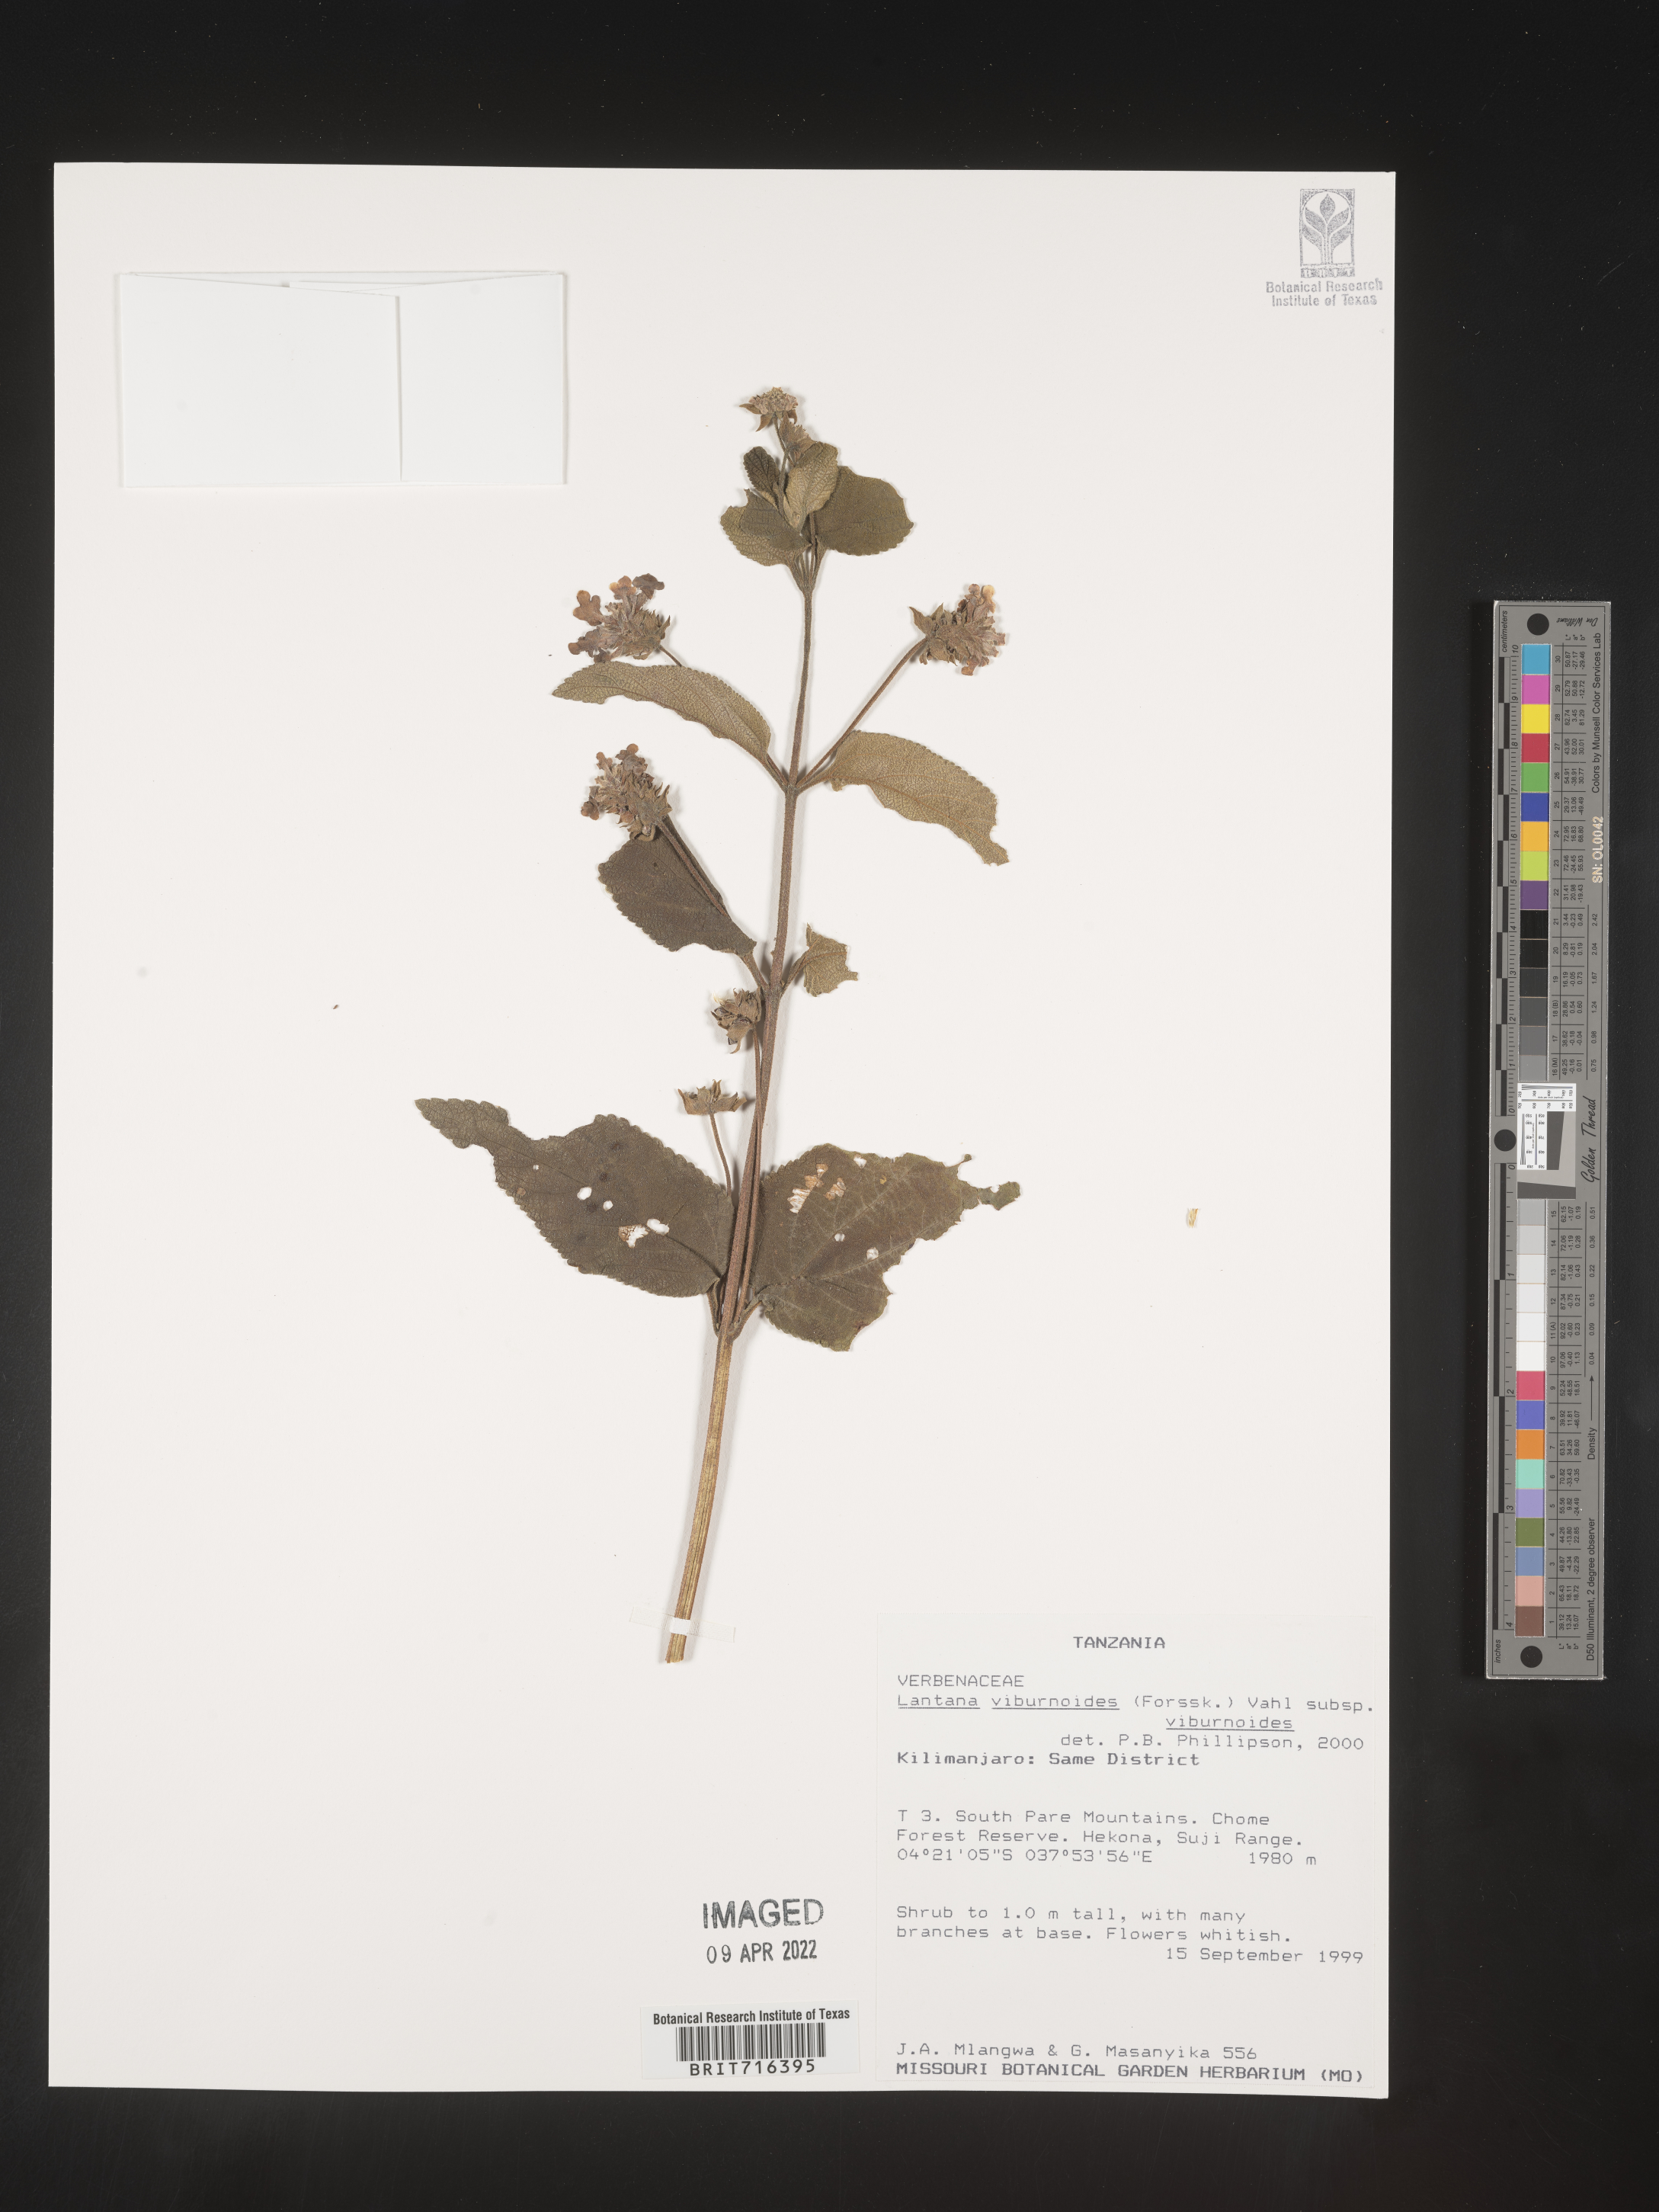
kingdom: Plantae
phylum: Tracheophyta
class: Magnoliopsida
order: Lamiales
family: Verbenaceae
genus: Lantana
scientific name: Lantana
